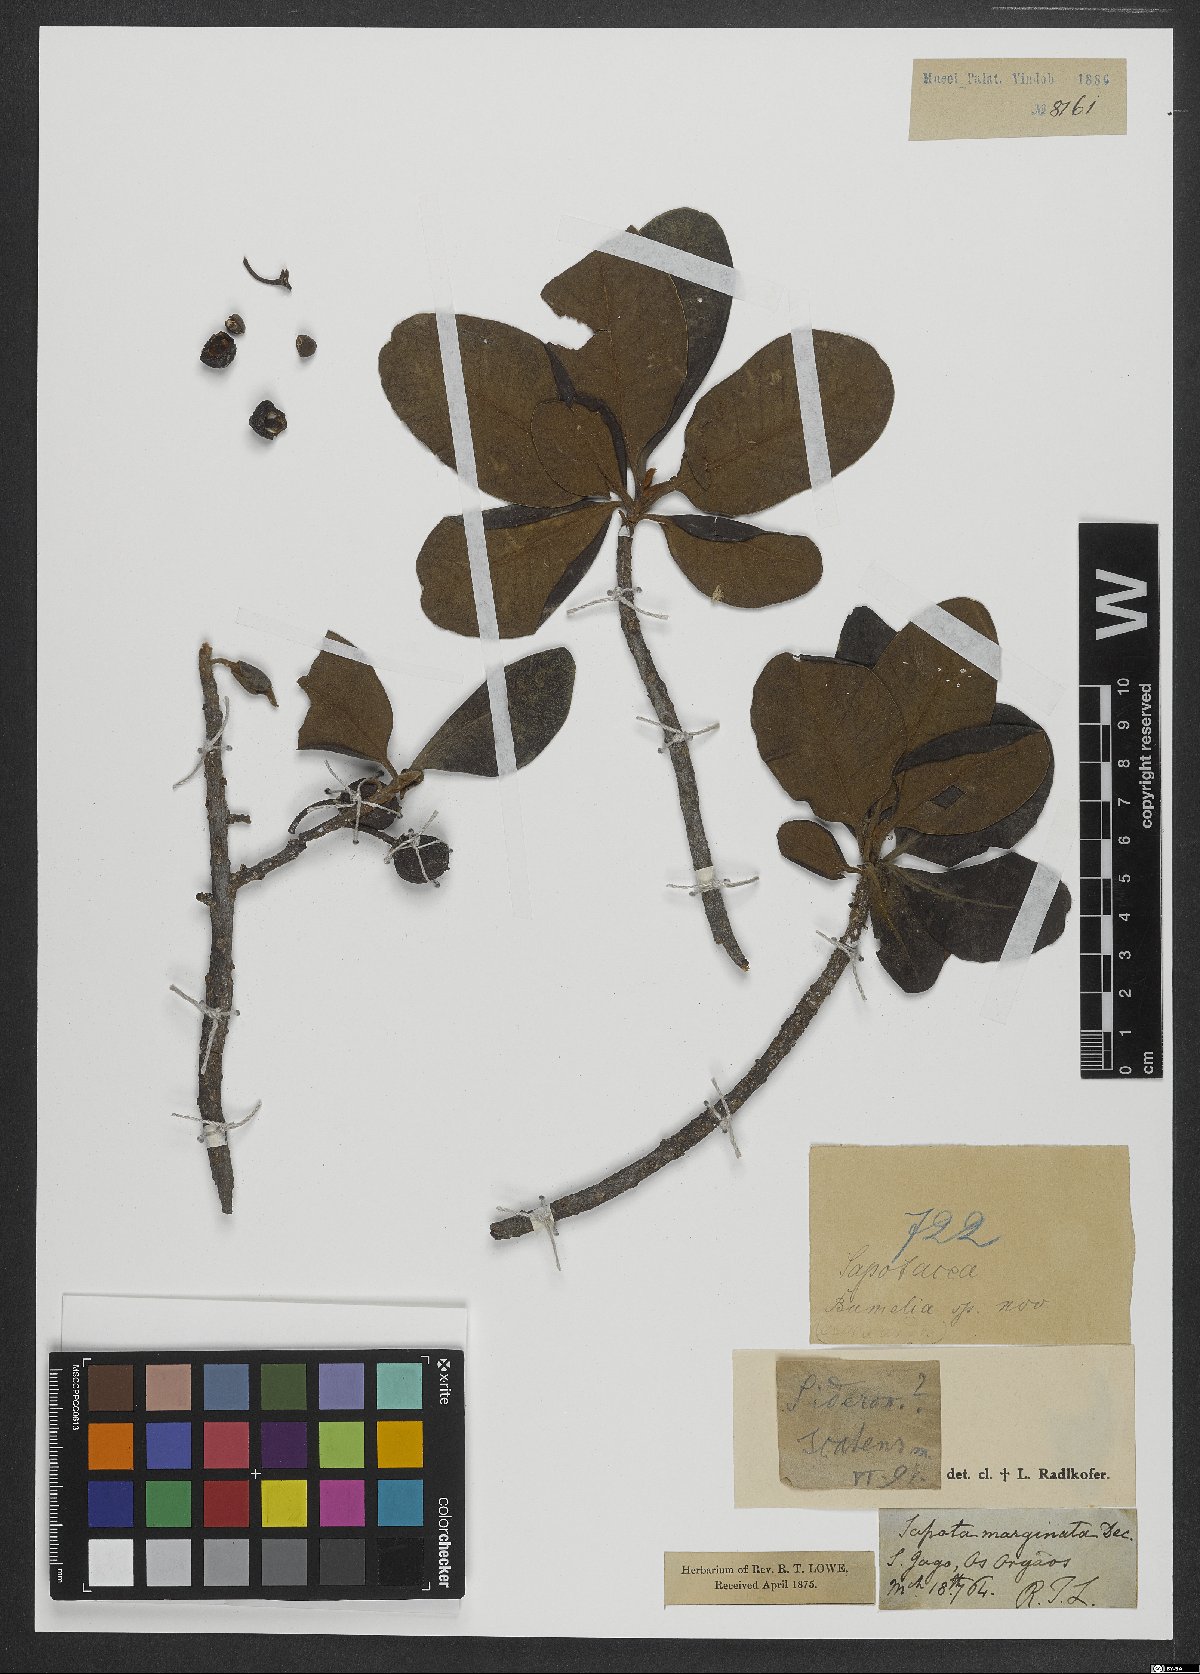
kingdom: Plantae
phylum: Tracheophyta
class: Magnoliopsida
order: Ericales
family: Sapotaceae
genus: Sideroxylon
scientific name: Sideroxylon
